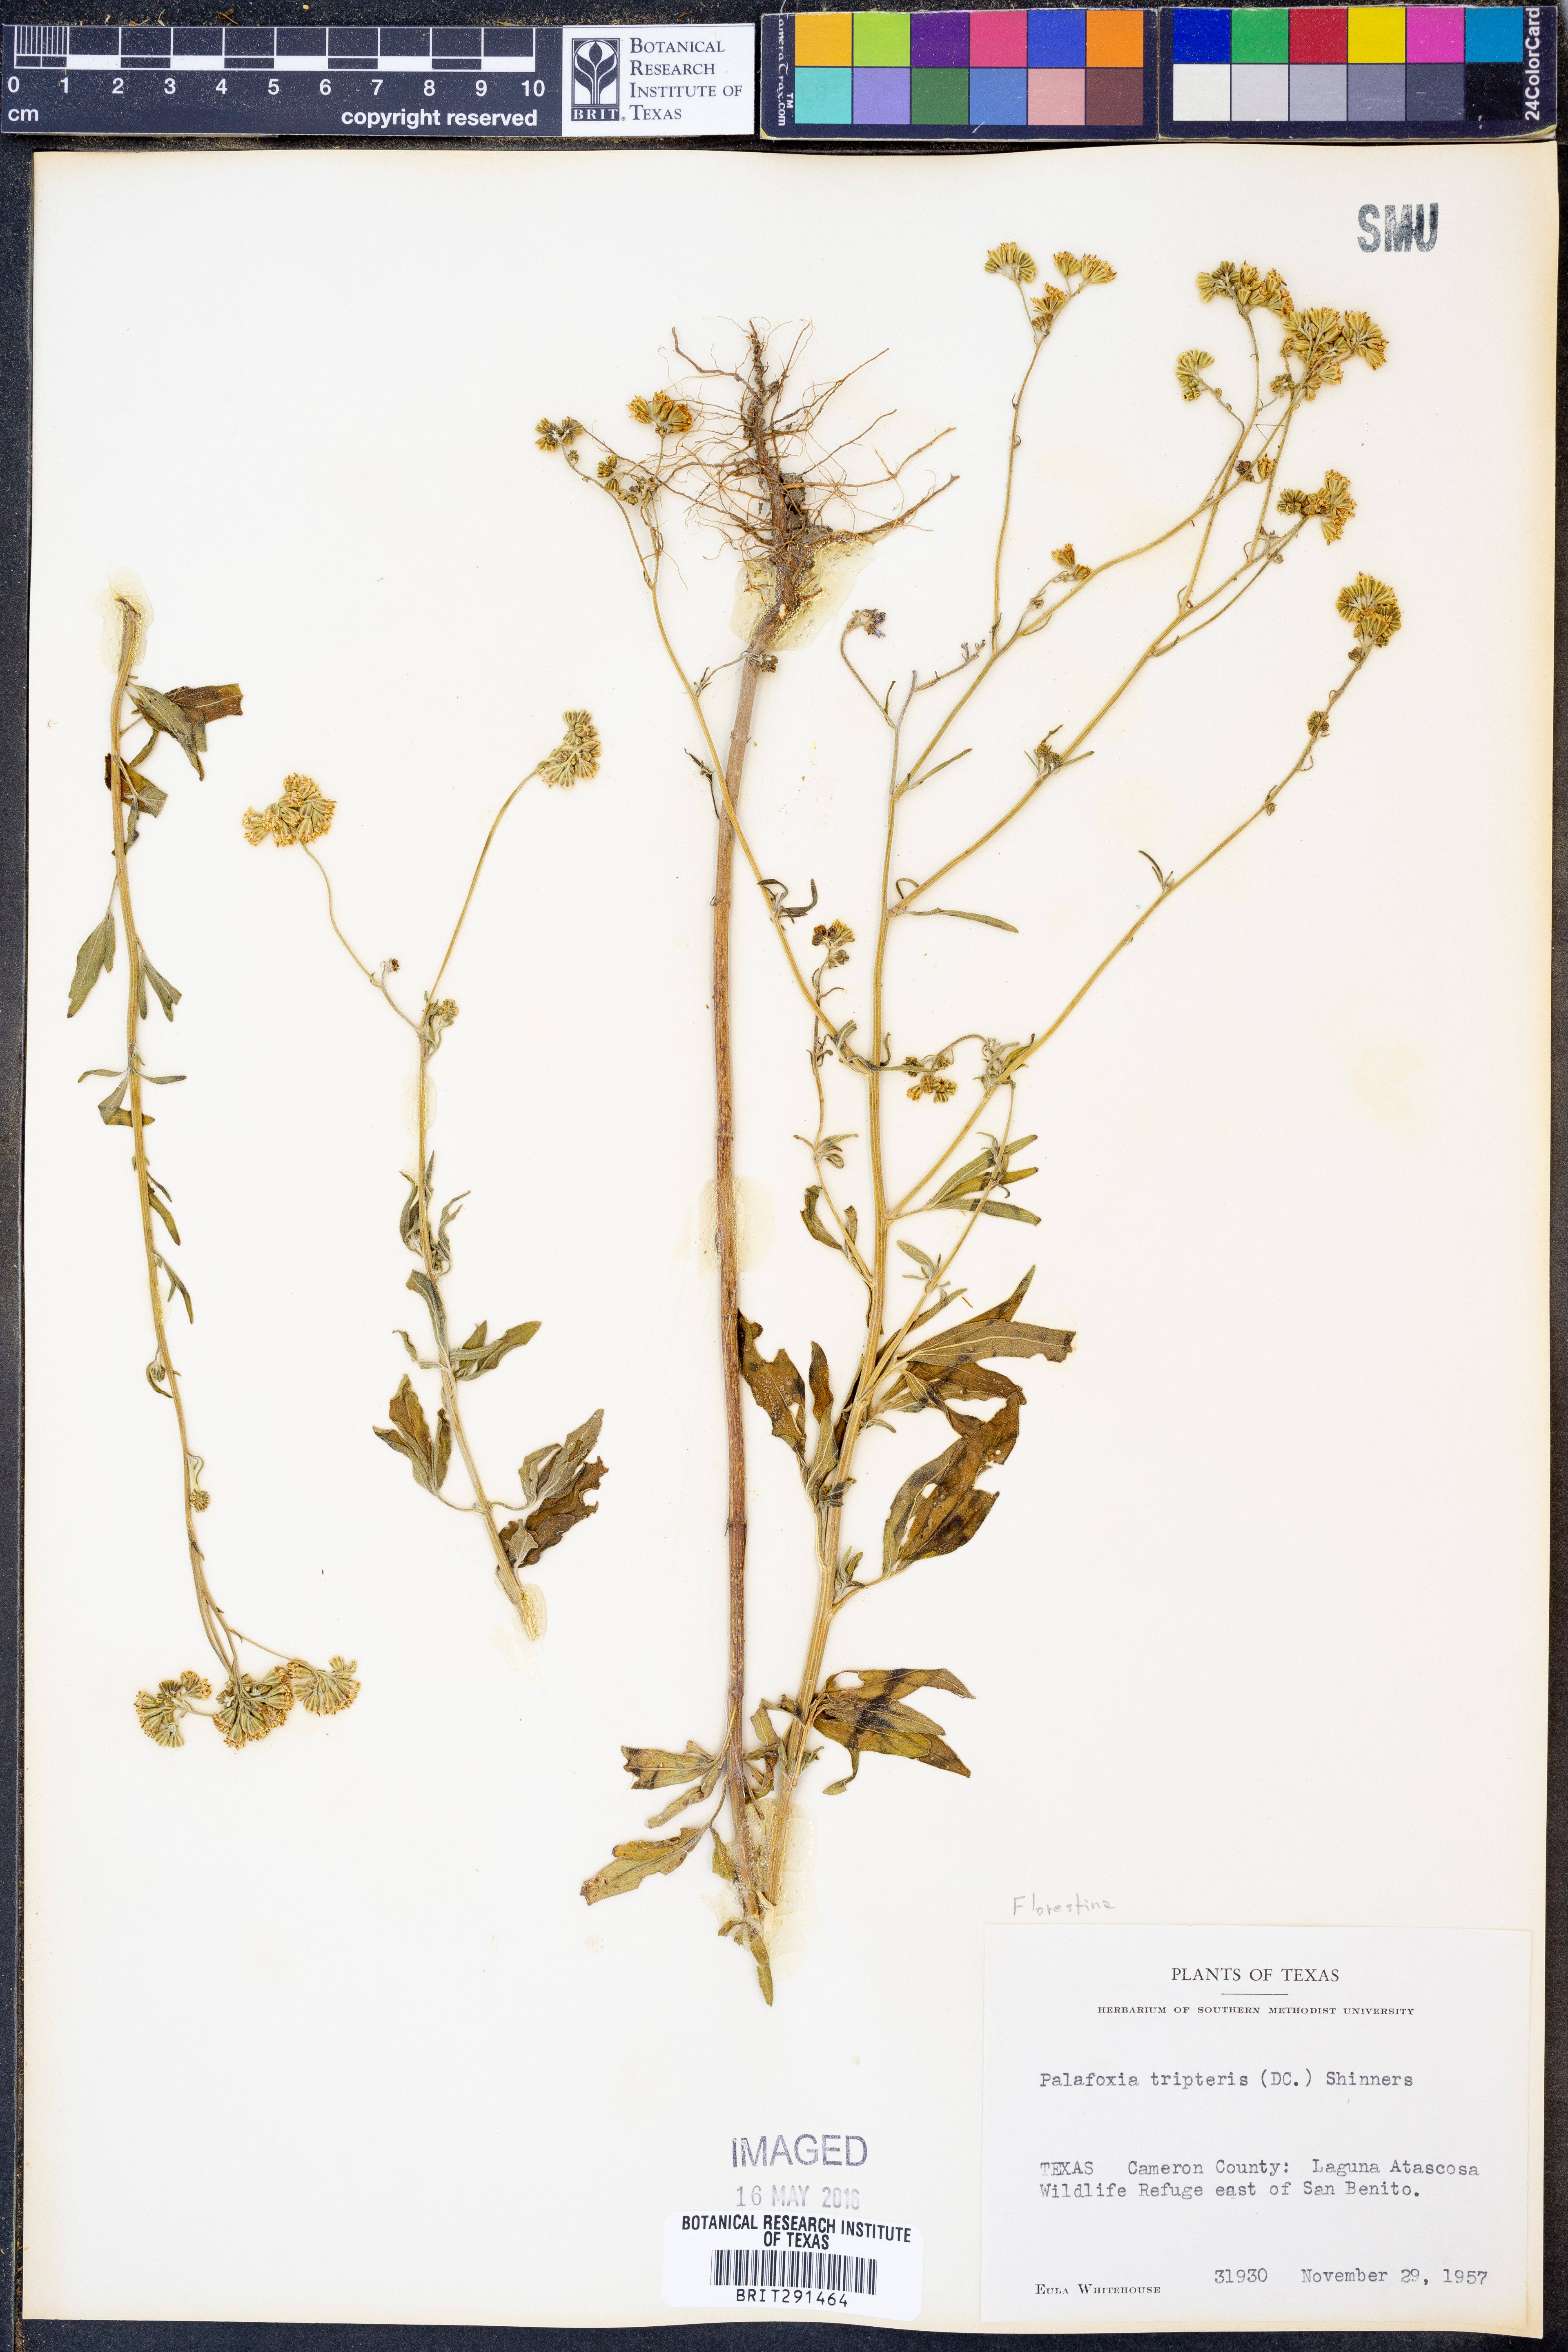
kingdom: Plantae
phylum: Tracheophyta
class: Magnoliopsida
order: Asterales
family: Asteraceae
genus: Florestina
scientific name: Florestina tripteris
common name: Sticky florestina
